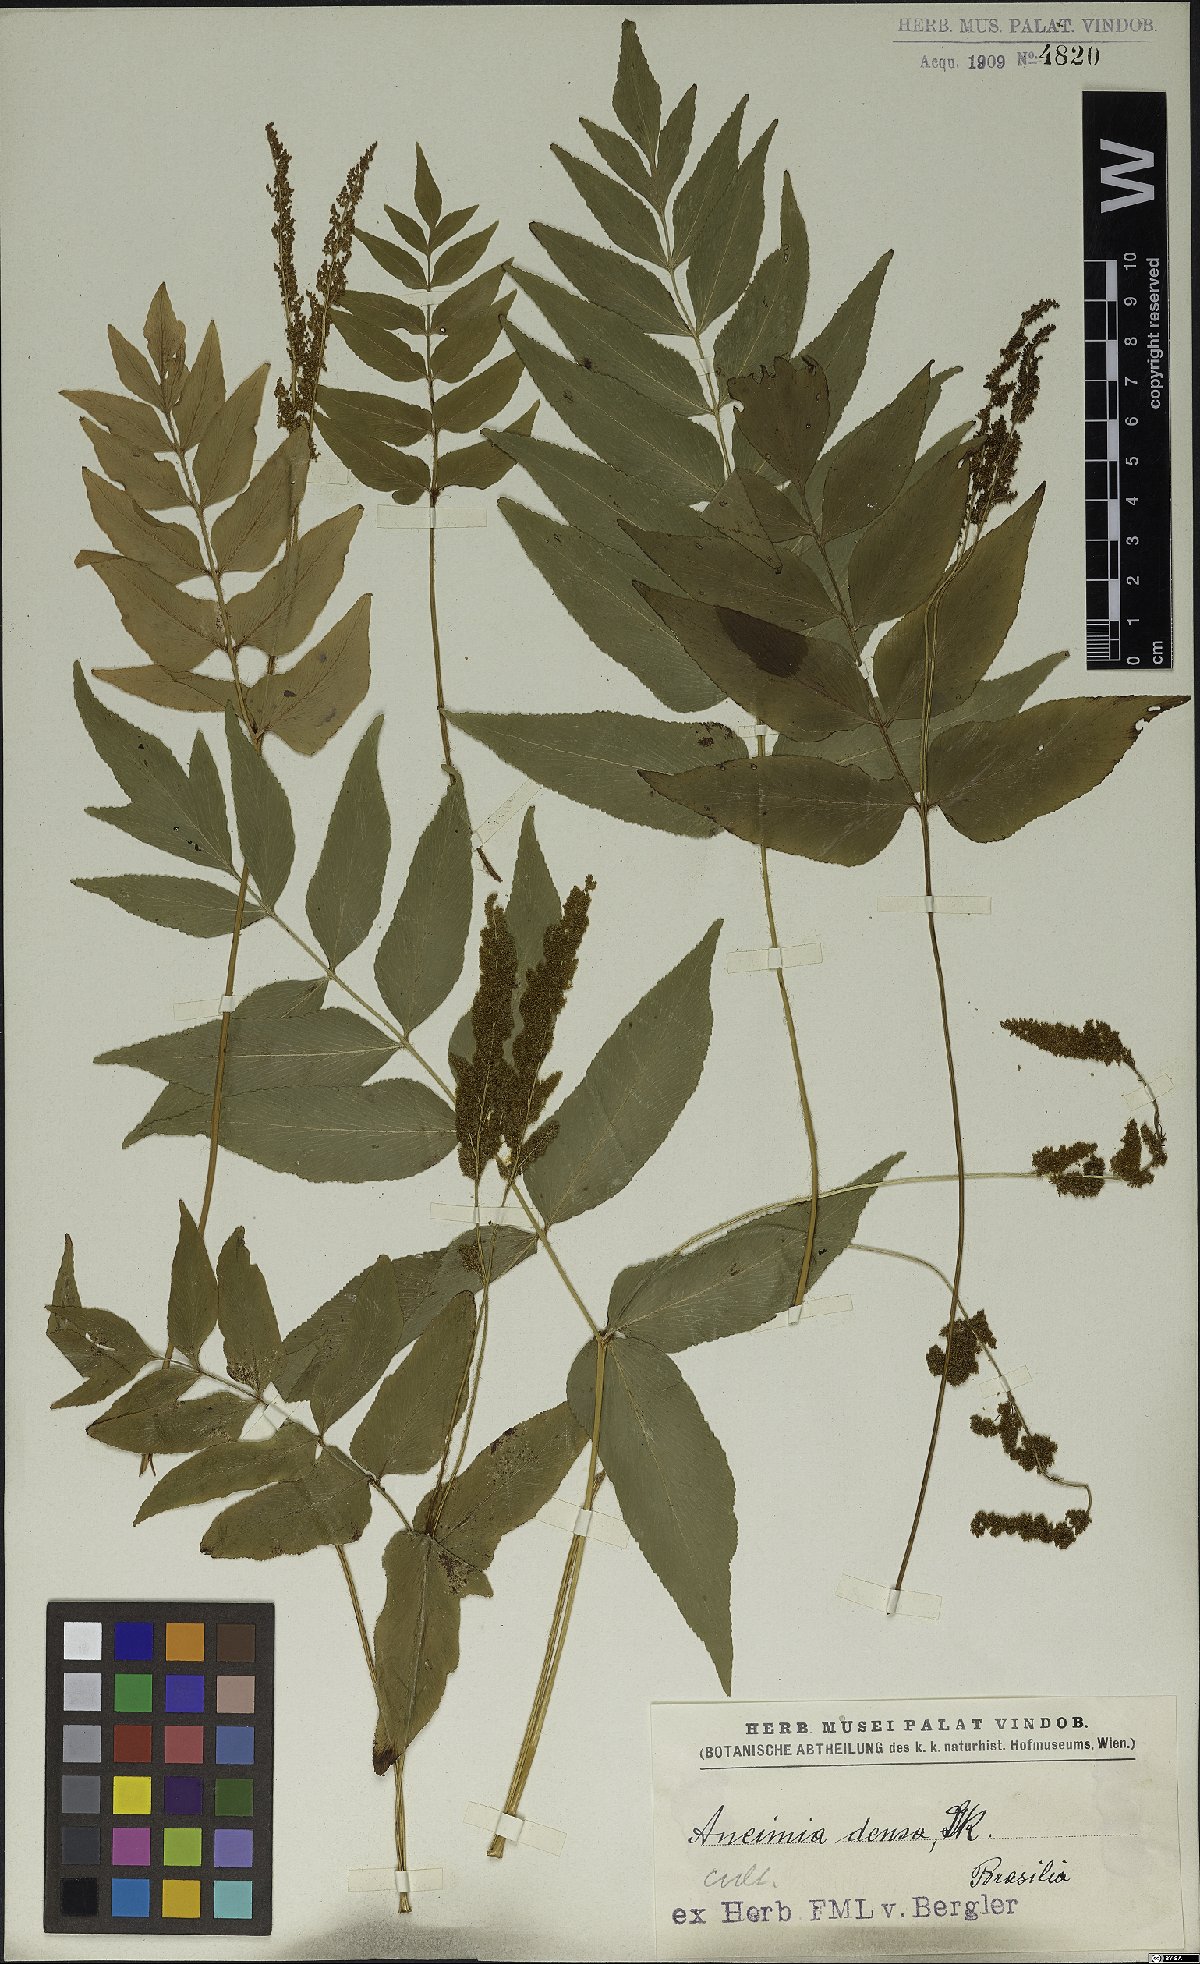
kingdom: Plantae
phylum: Tracheophyta
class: Polypodiopsida
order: Schizaeales
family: Anemiaceae
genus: Anemia
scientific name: Anemia phyllitidis
